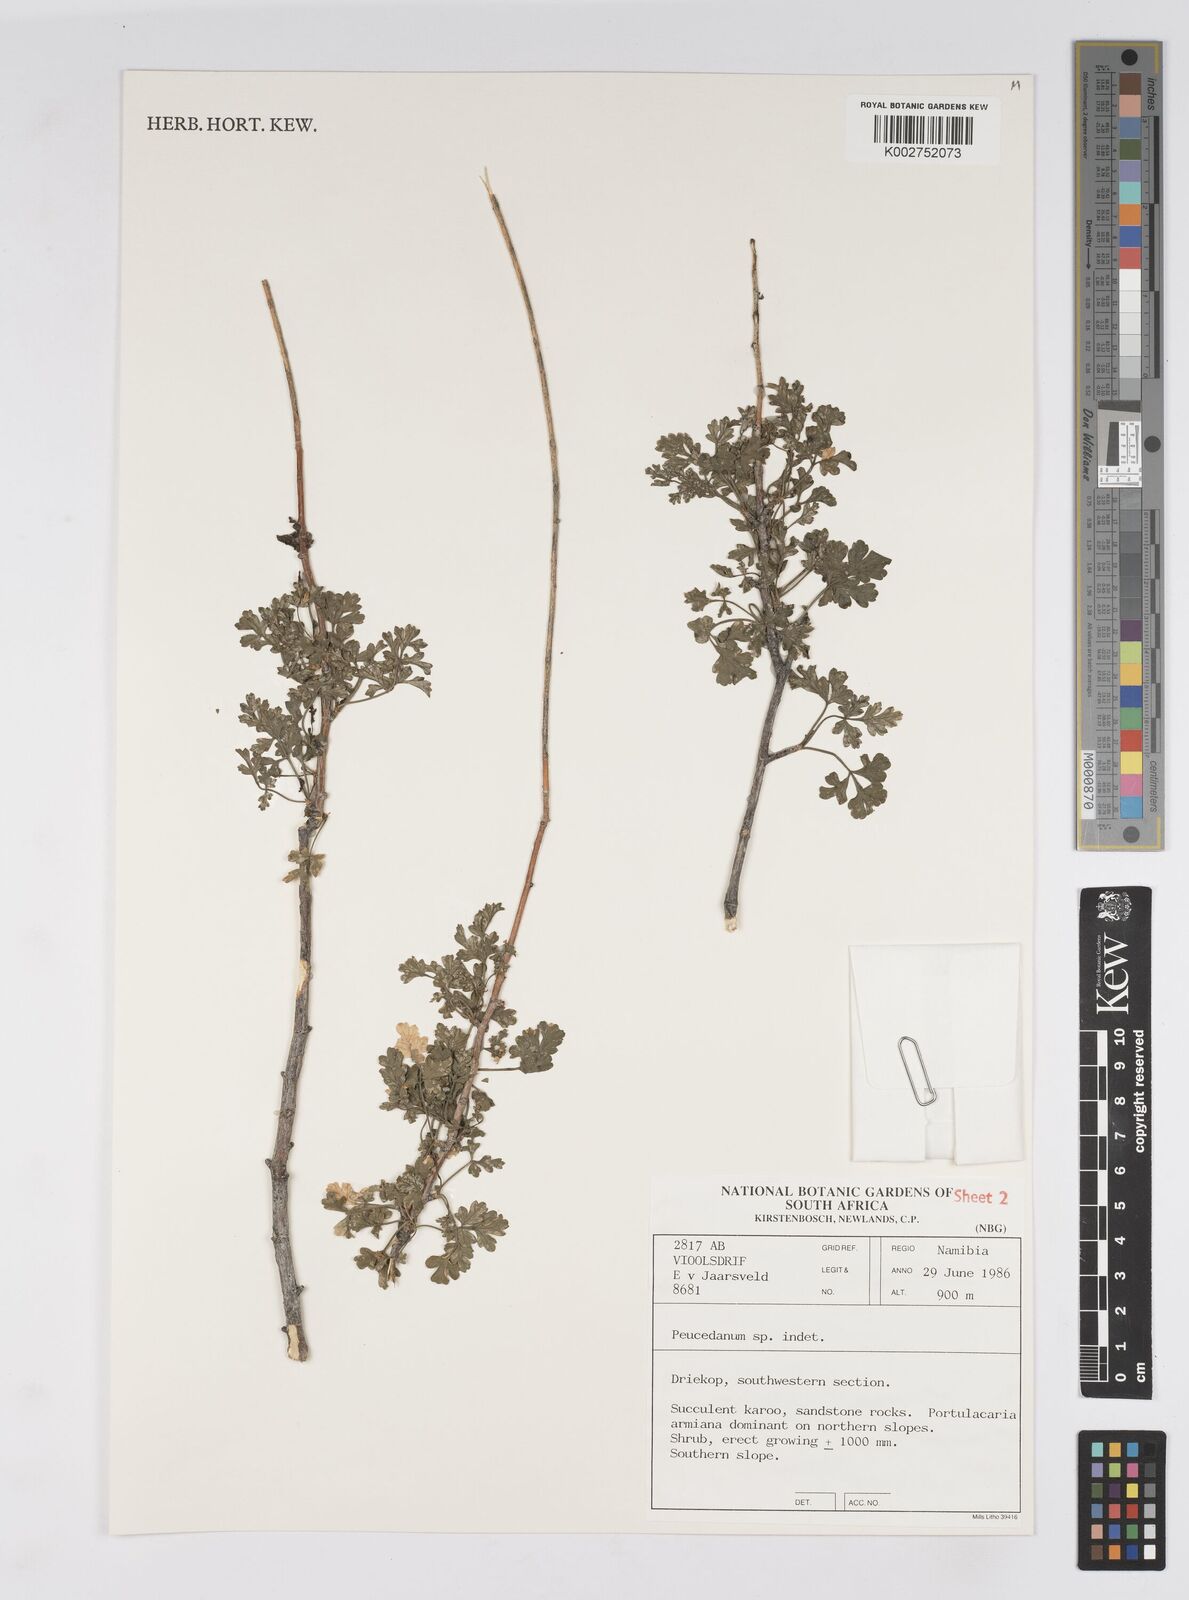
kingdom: Plantae
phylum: Tracheophyta
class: Magnoliopsida
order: Apiales
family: Apiaceae
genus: Anginon
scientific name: Anginon verticillatum
